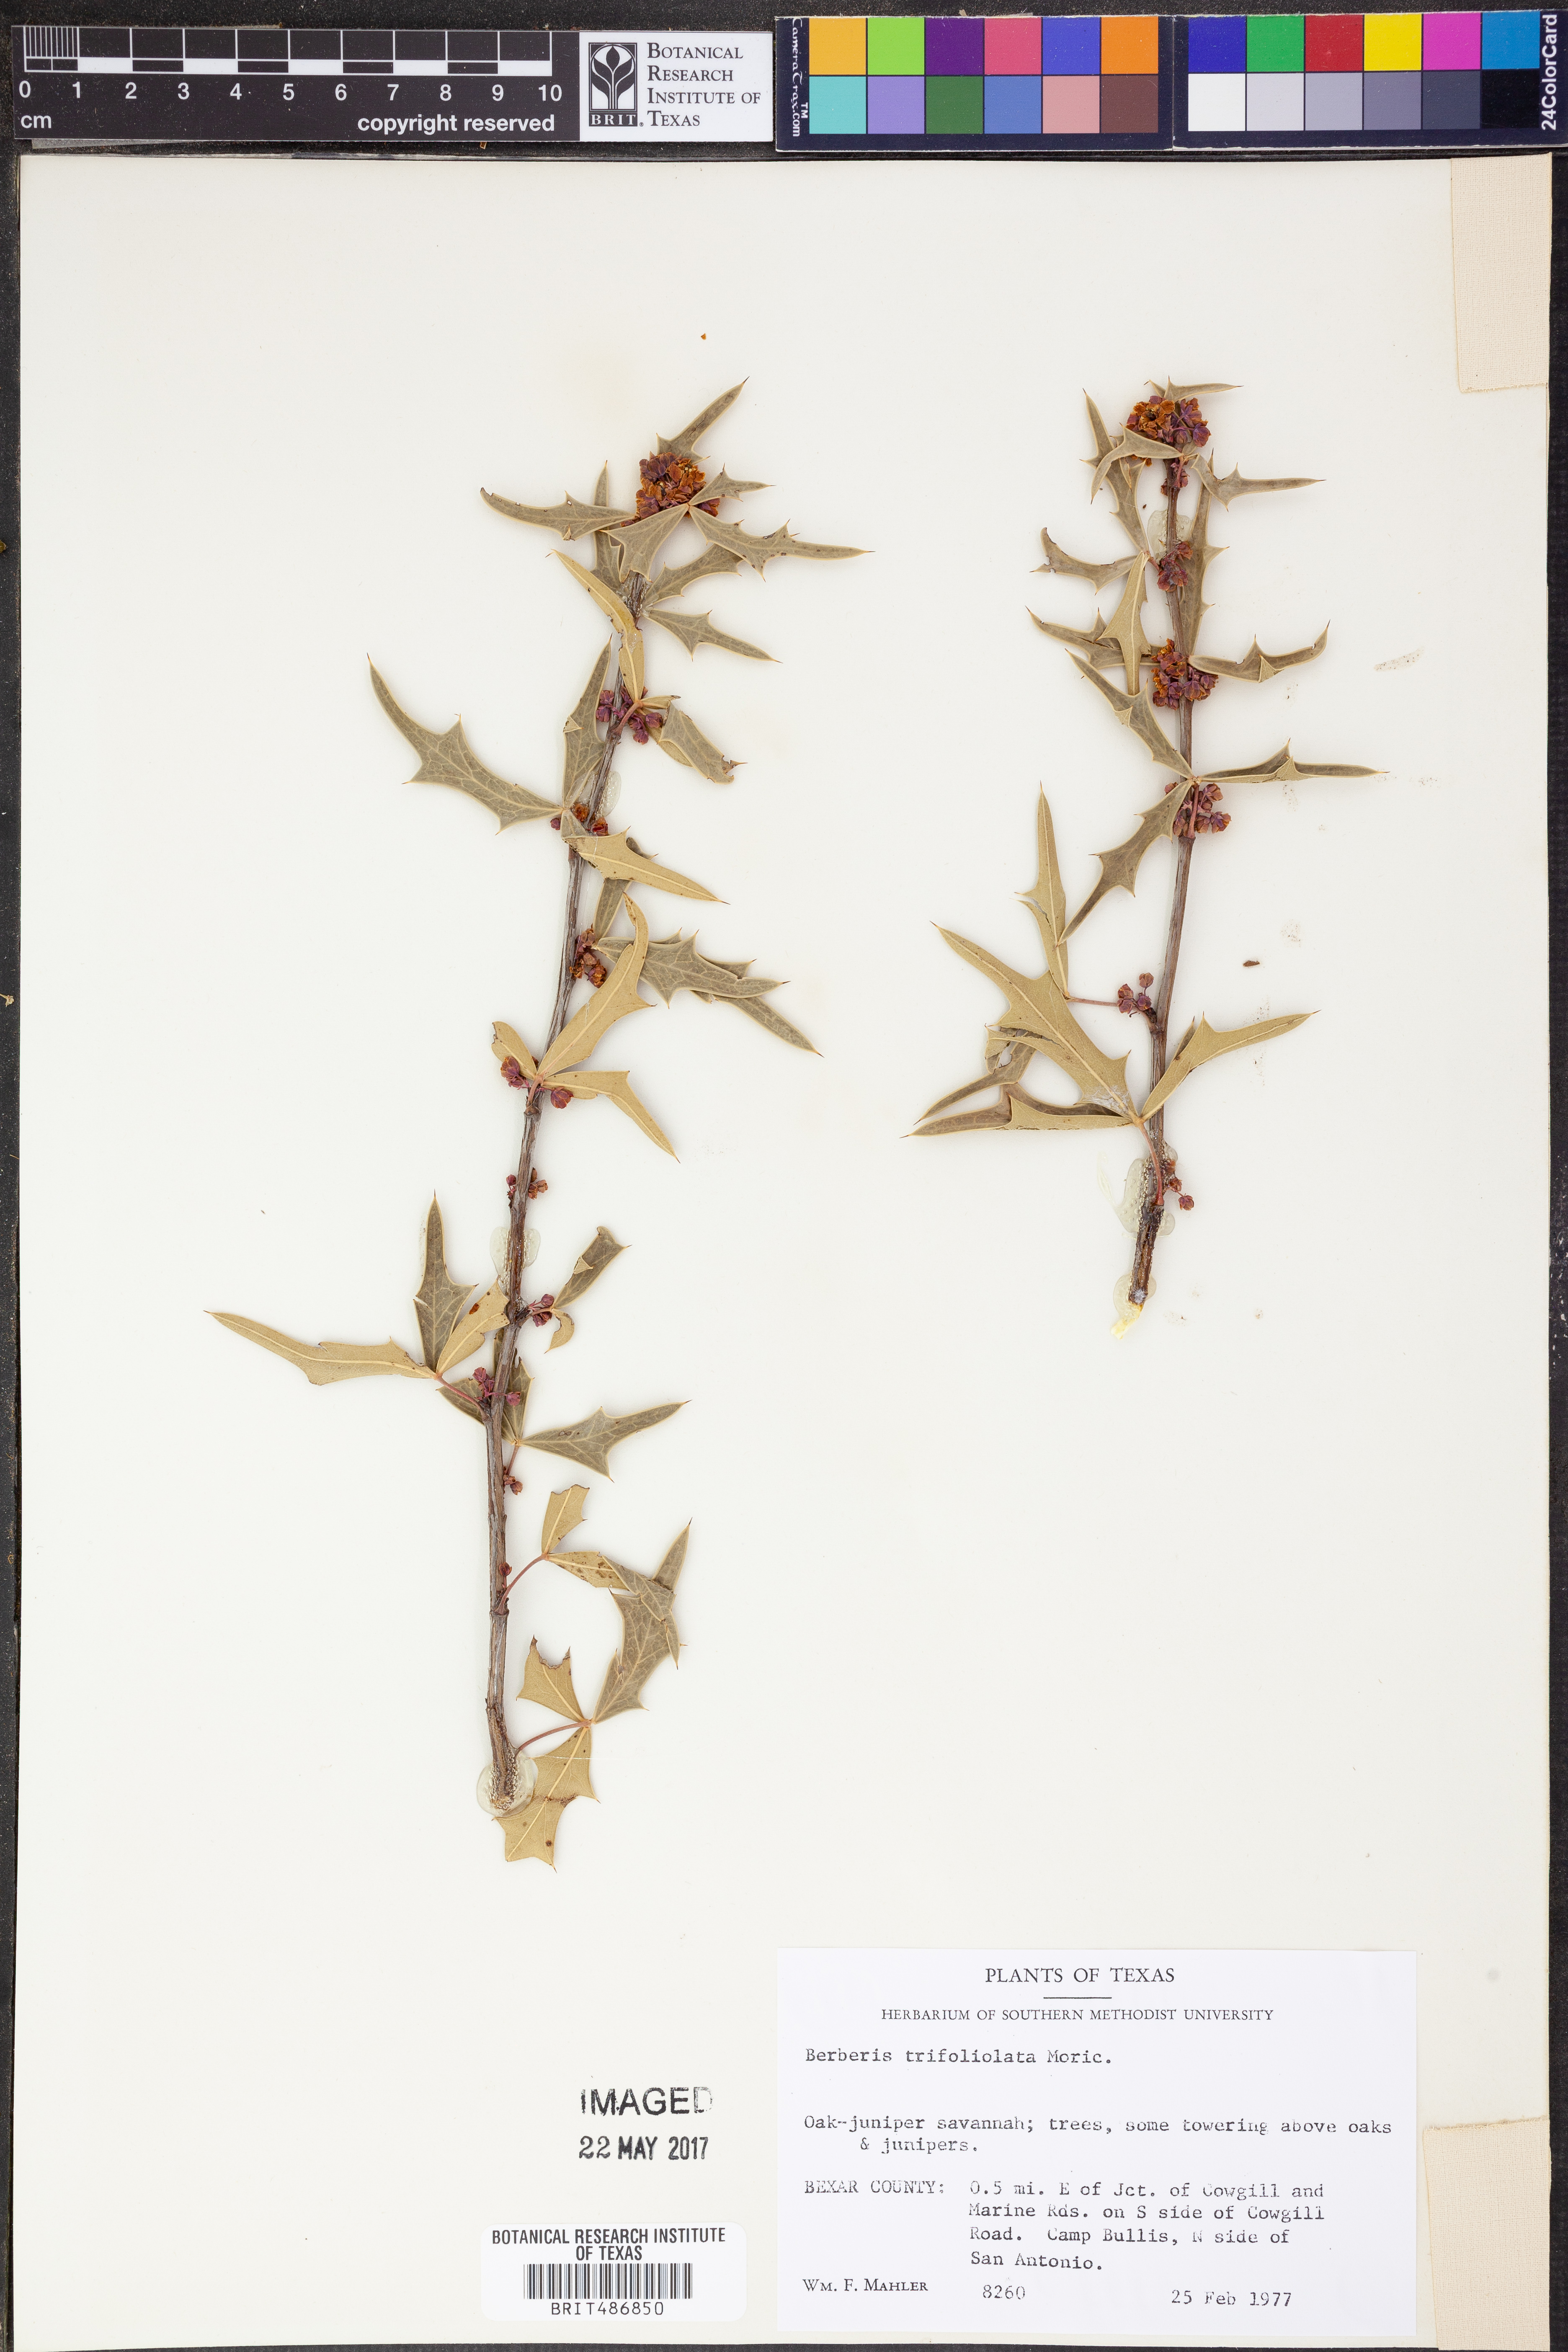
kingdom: Plantae
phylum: Tracheophyta
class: Magnoliopsida
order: Ranunculales
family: Berberidaceae
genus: Alloberberis
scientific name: Alloberberis trifoliolata
